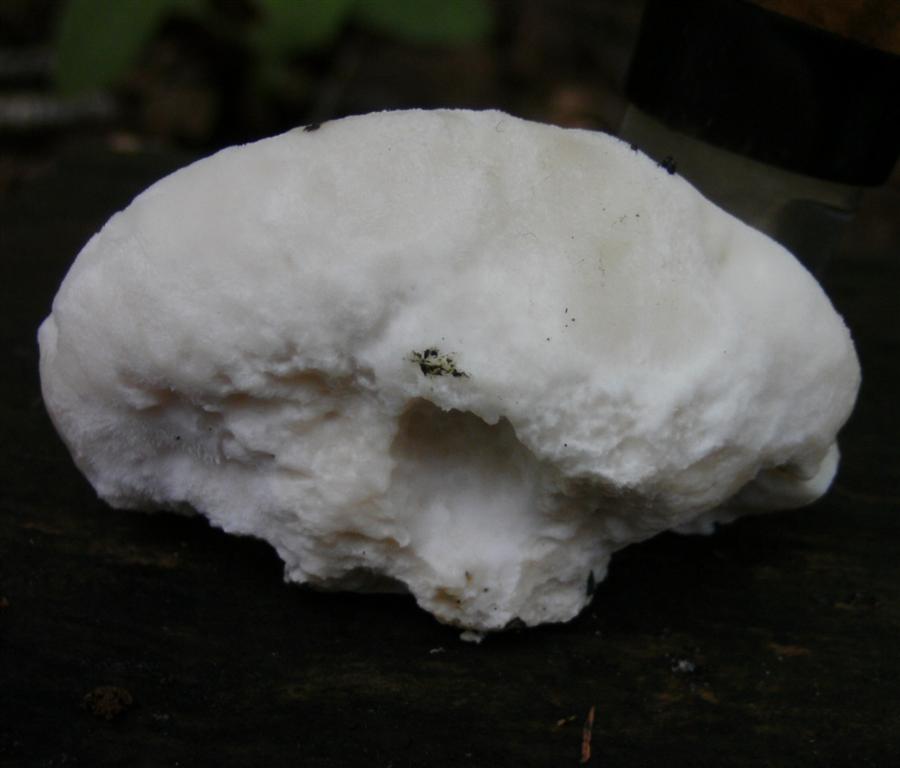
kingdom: Fungi
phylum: Basidiomycota
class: Agaricomycetes
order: Polyporales
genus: Amaropostia
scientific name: Amaropostia stiptica
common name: bitter kødporesvamp
